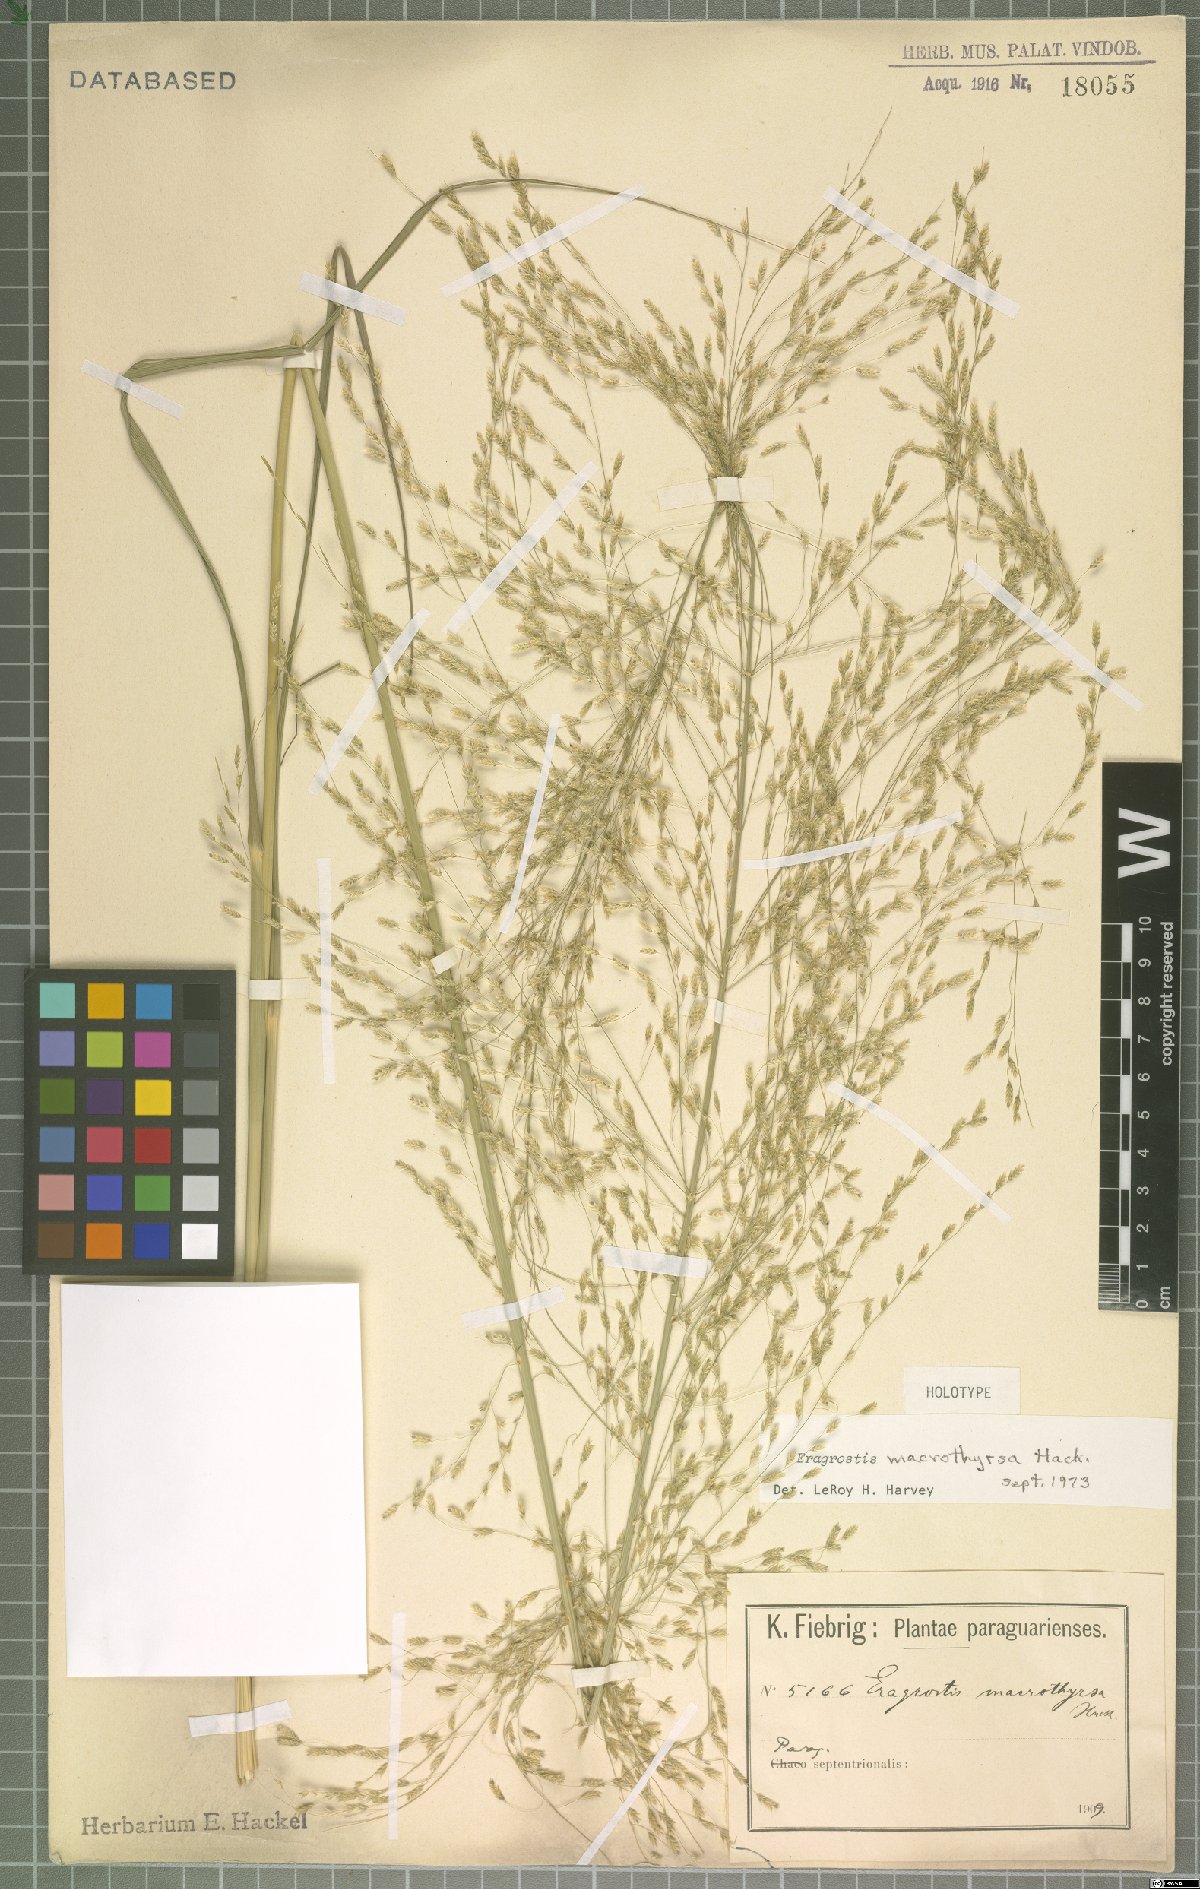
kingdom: Plantae
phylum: Tracheophyta
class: Liliopsida
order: Poales
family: Poaceae
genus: Eragrostis
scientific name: Eragrostis macrothyrsa
